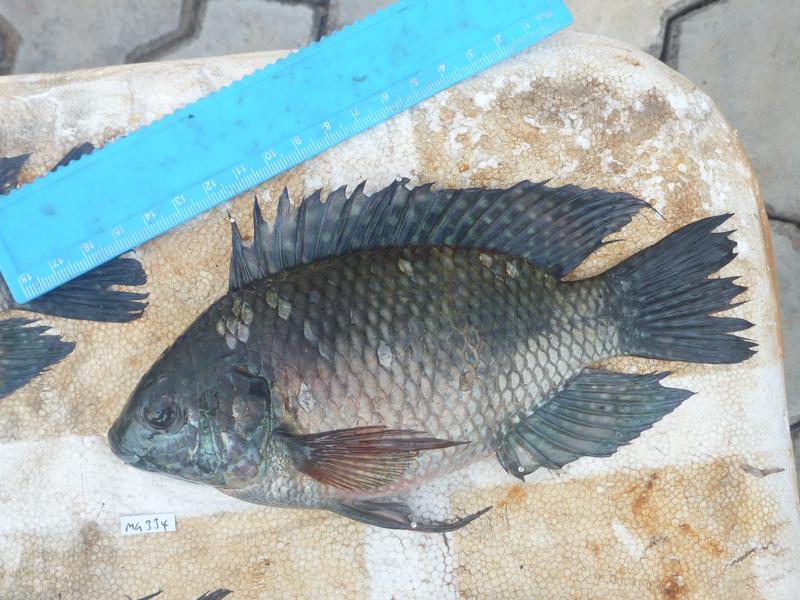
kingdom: Animalia
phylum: Chordata
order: Perciformes
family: Cichlidae
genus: Oreochromis
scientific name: Oreochromis leucostictus
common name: Blue spotted tilapia
